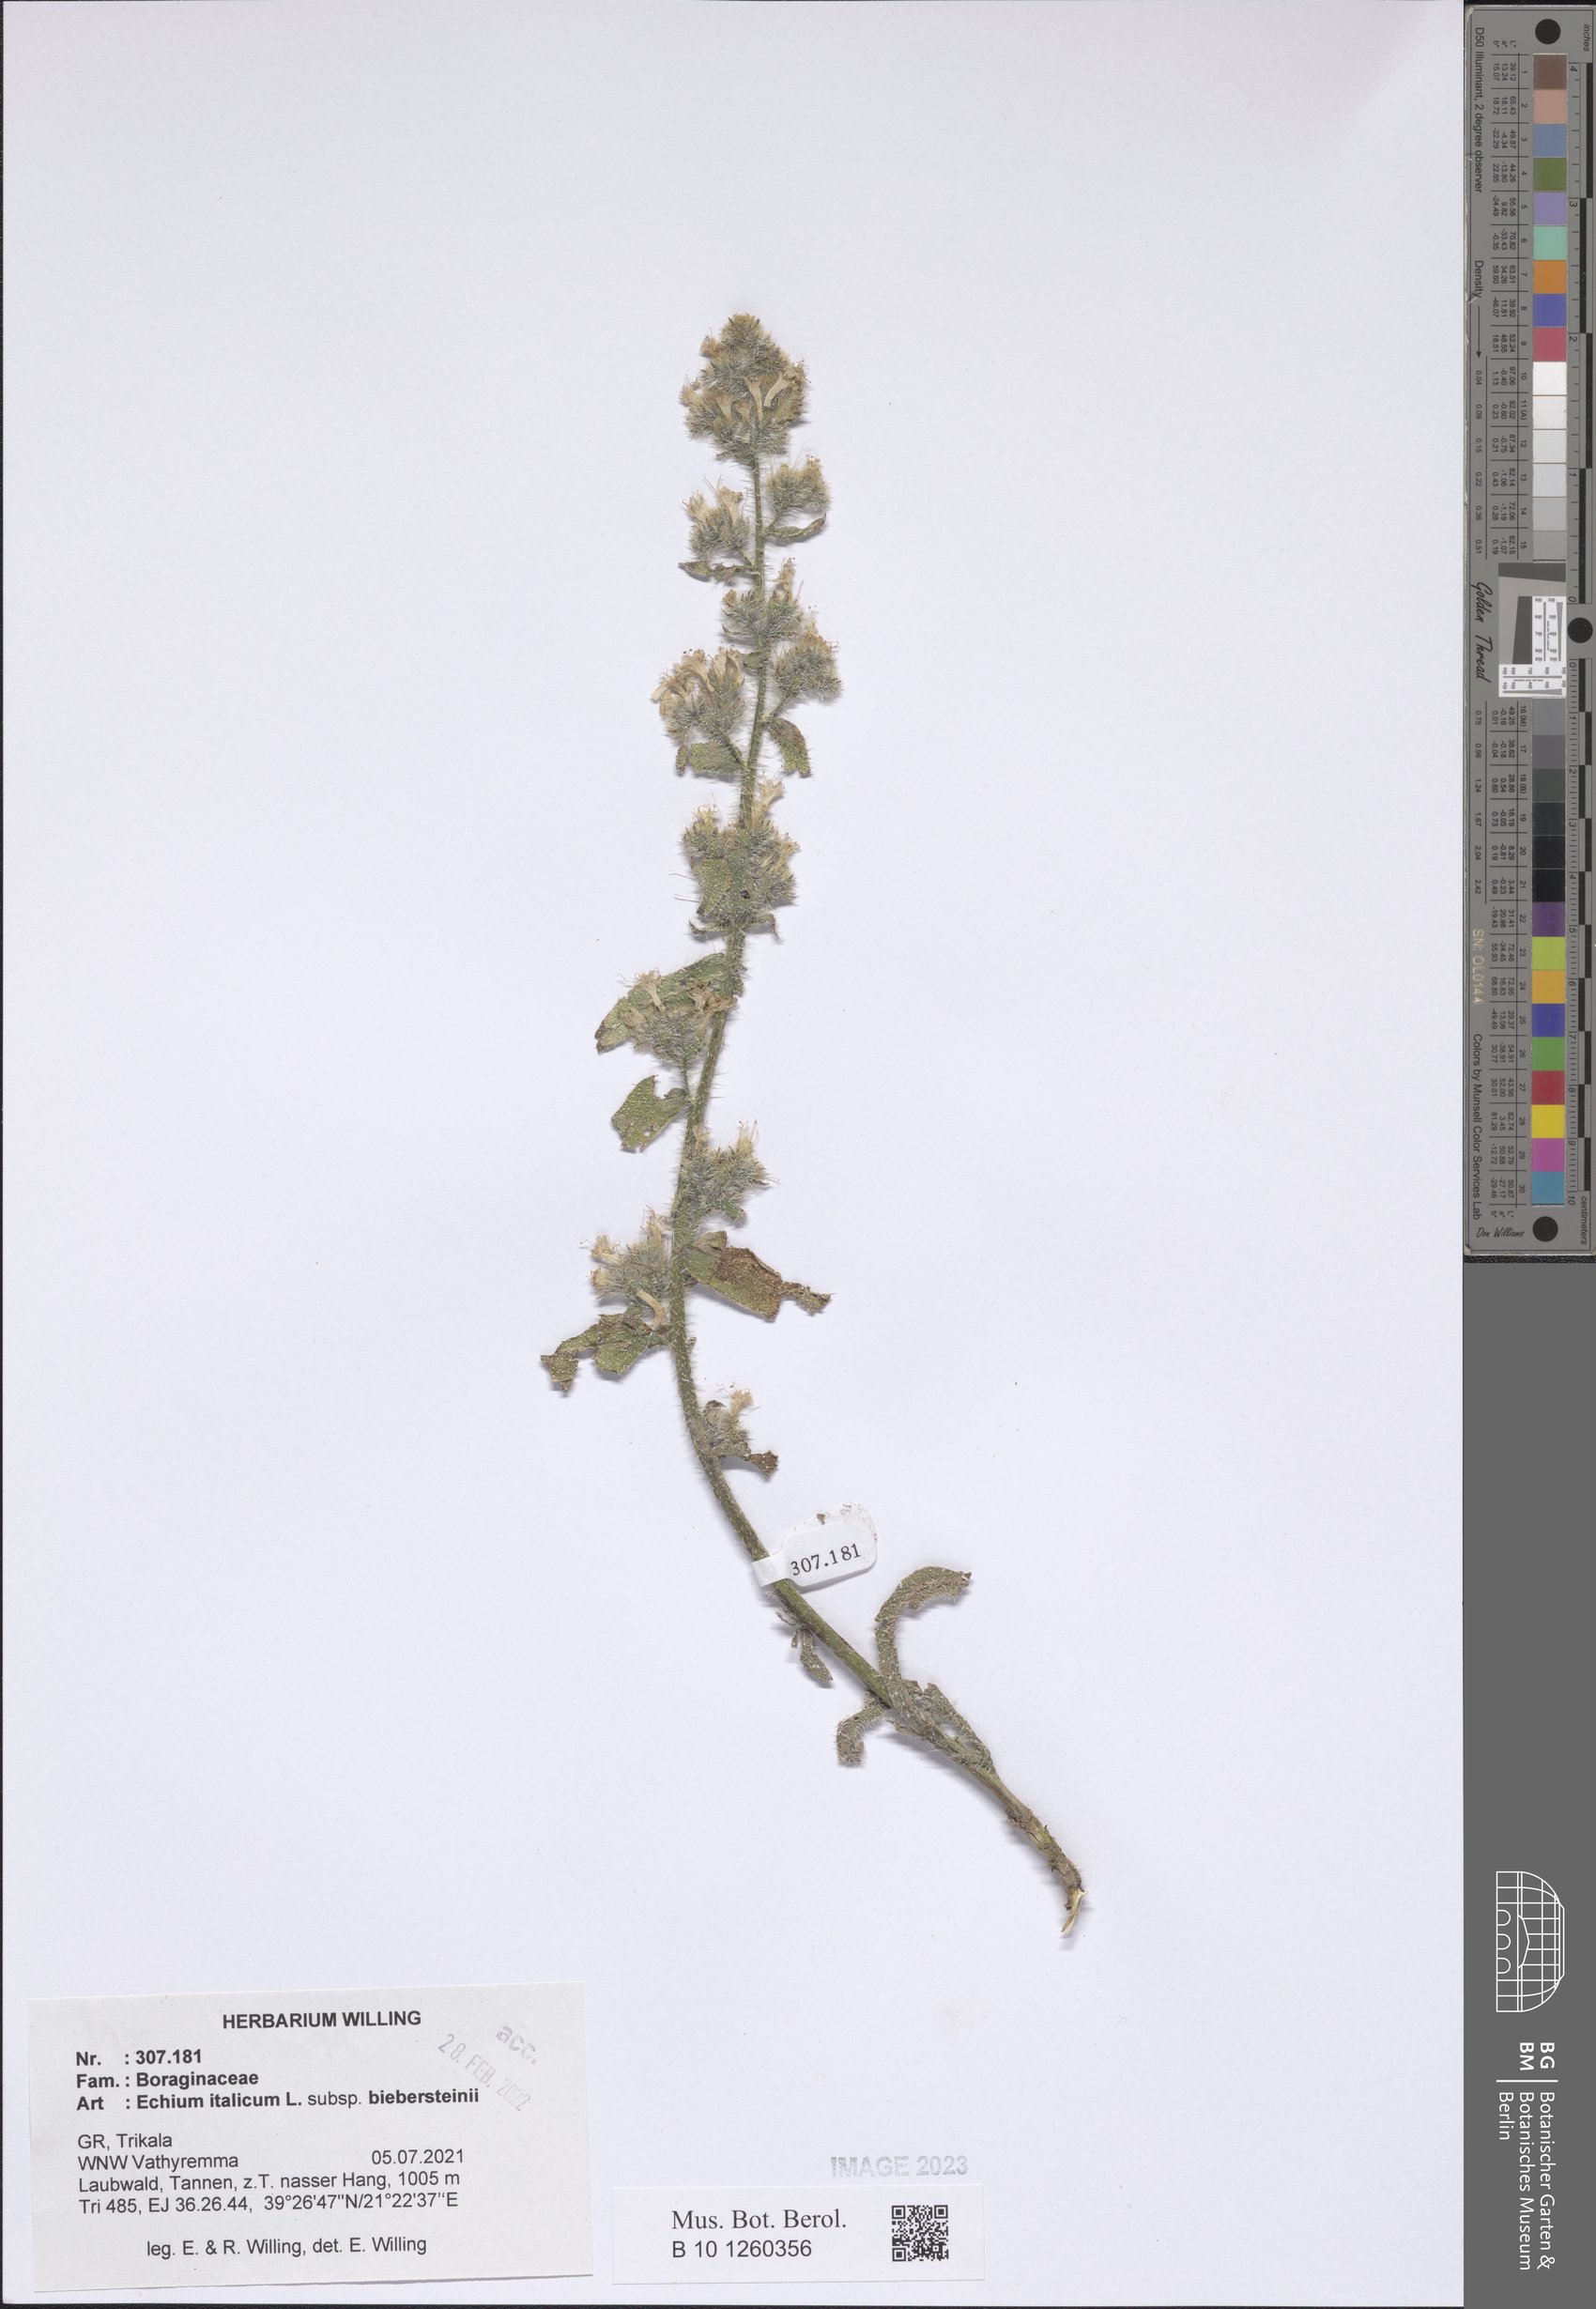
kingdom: Plantae
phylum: Tracheophyta
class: Magnoliopsida
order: Boraginales
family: Boraginaceae
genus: Echium
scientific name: Echium italicum
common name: Italian viper's bugloss
